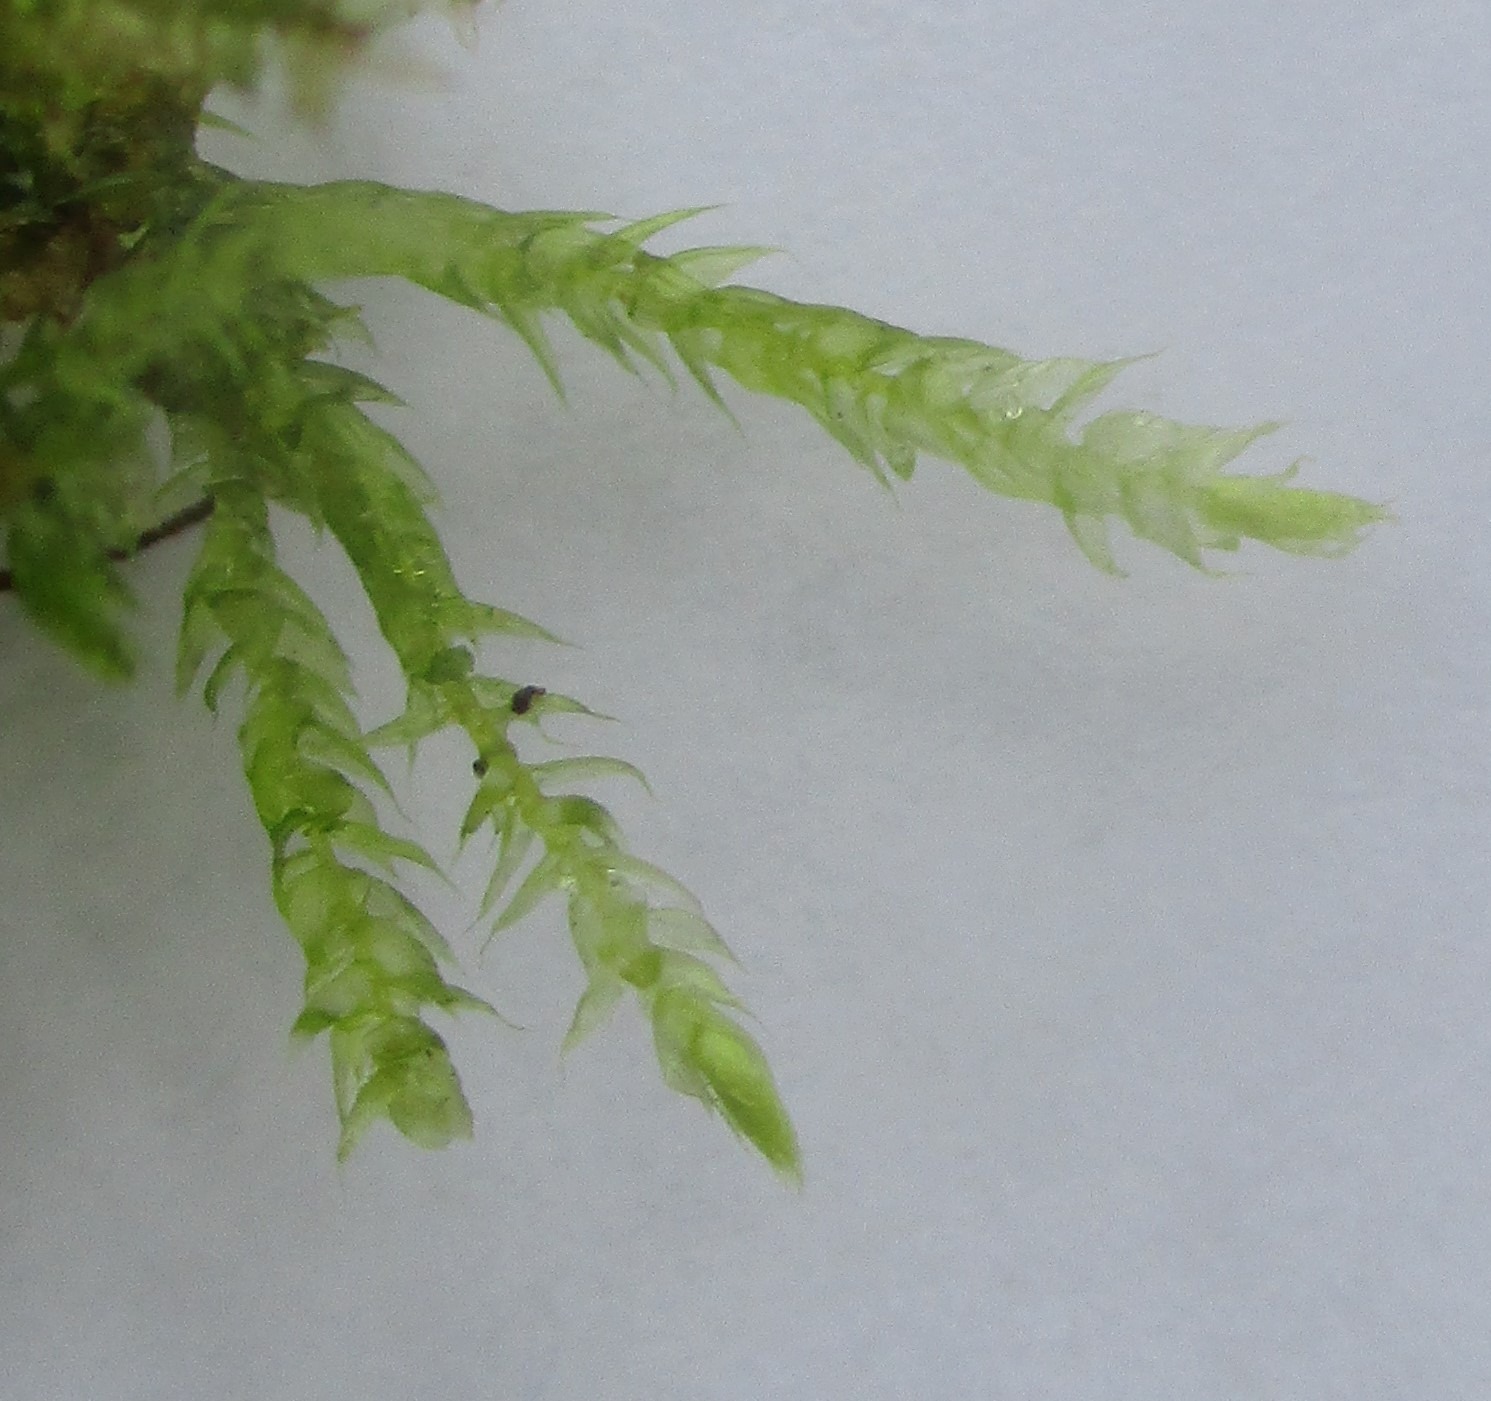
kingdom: Plantae
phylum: Bryophyta
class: Bryopsida
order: Hypnales
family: Brachytheciaceae
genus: Kindbergia
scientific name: Kindbergia praelonga
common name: Forskelligbladet vortetand
